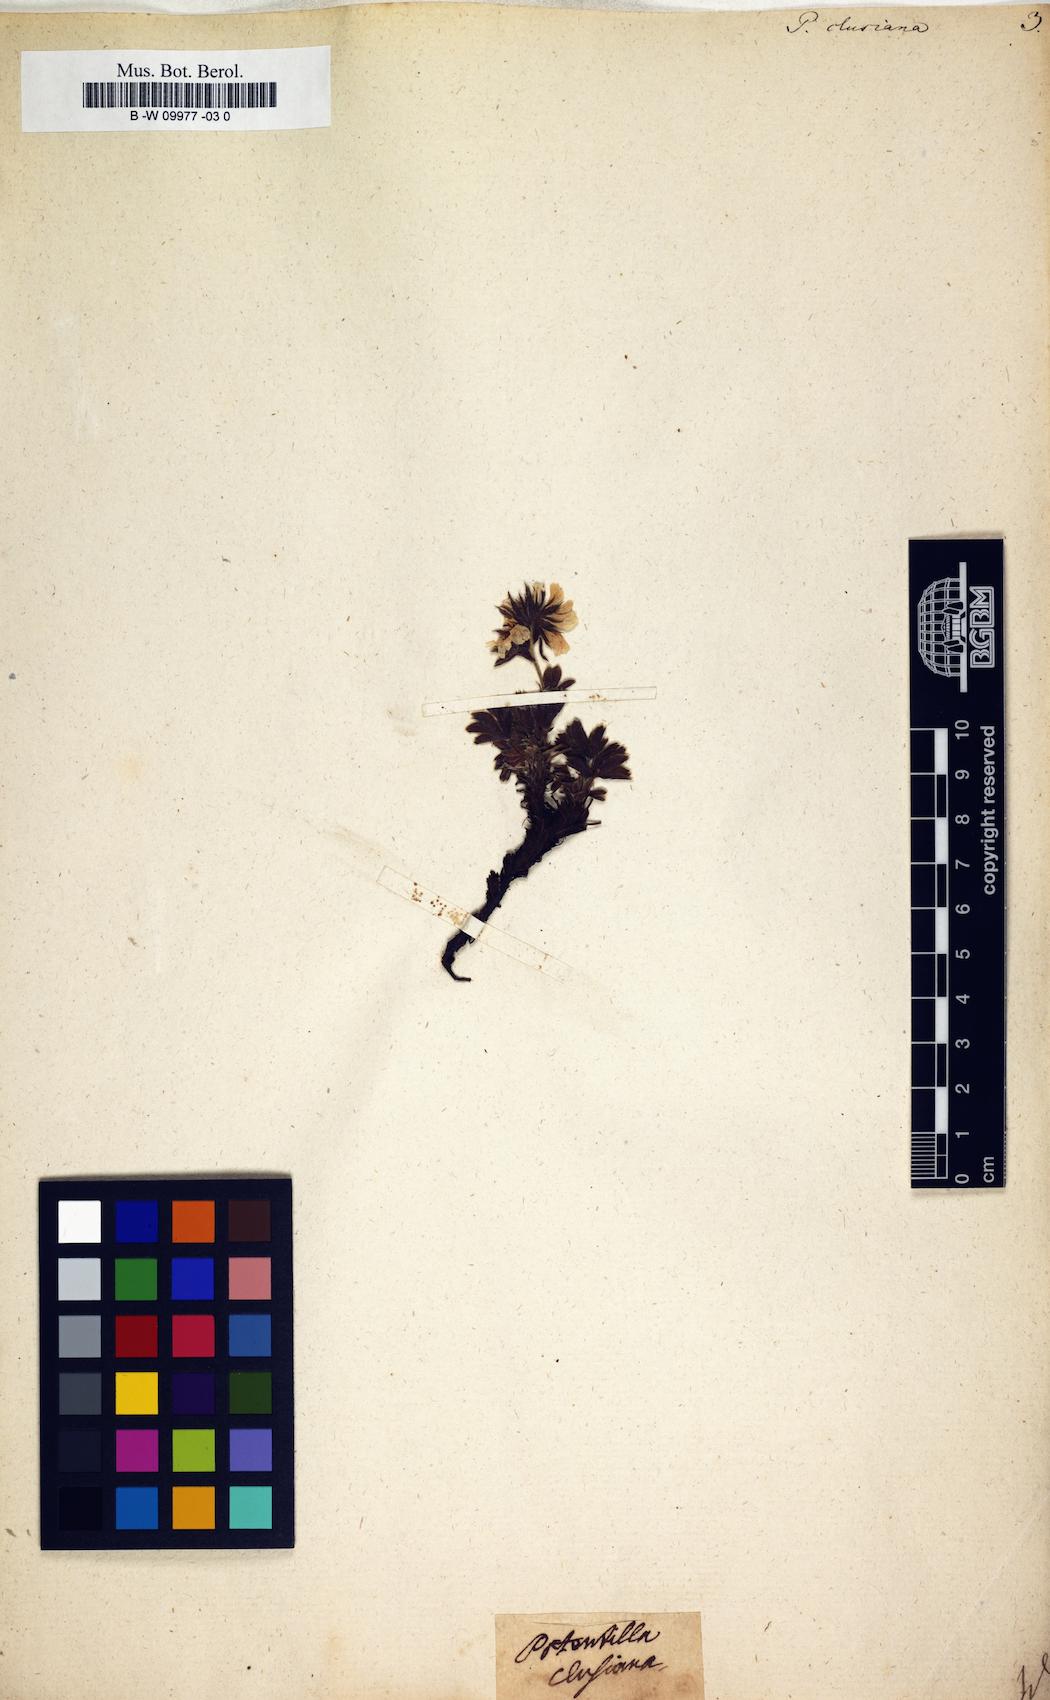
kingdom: Plantae
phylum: Tracheophyta
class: Magnoliopsida
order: Rosales
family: Rosaceae
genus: Potentilla
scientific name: Potentilla clusiana
